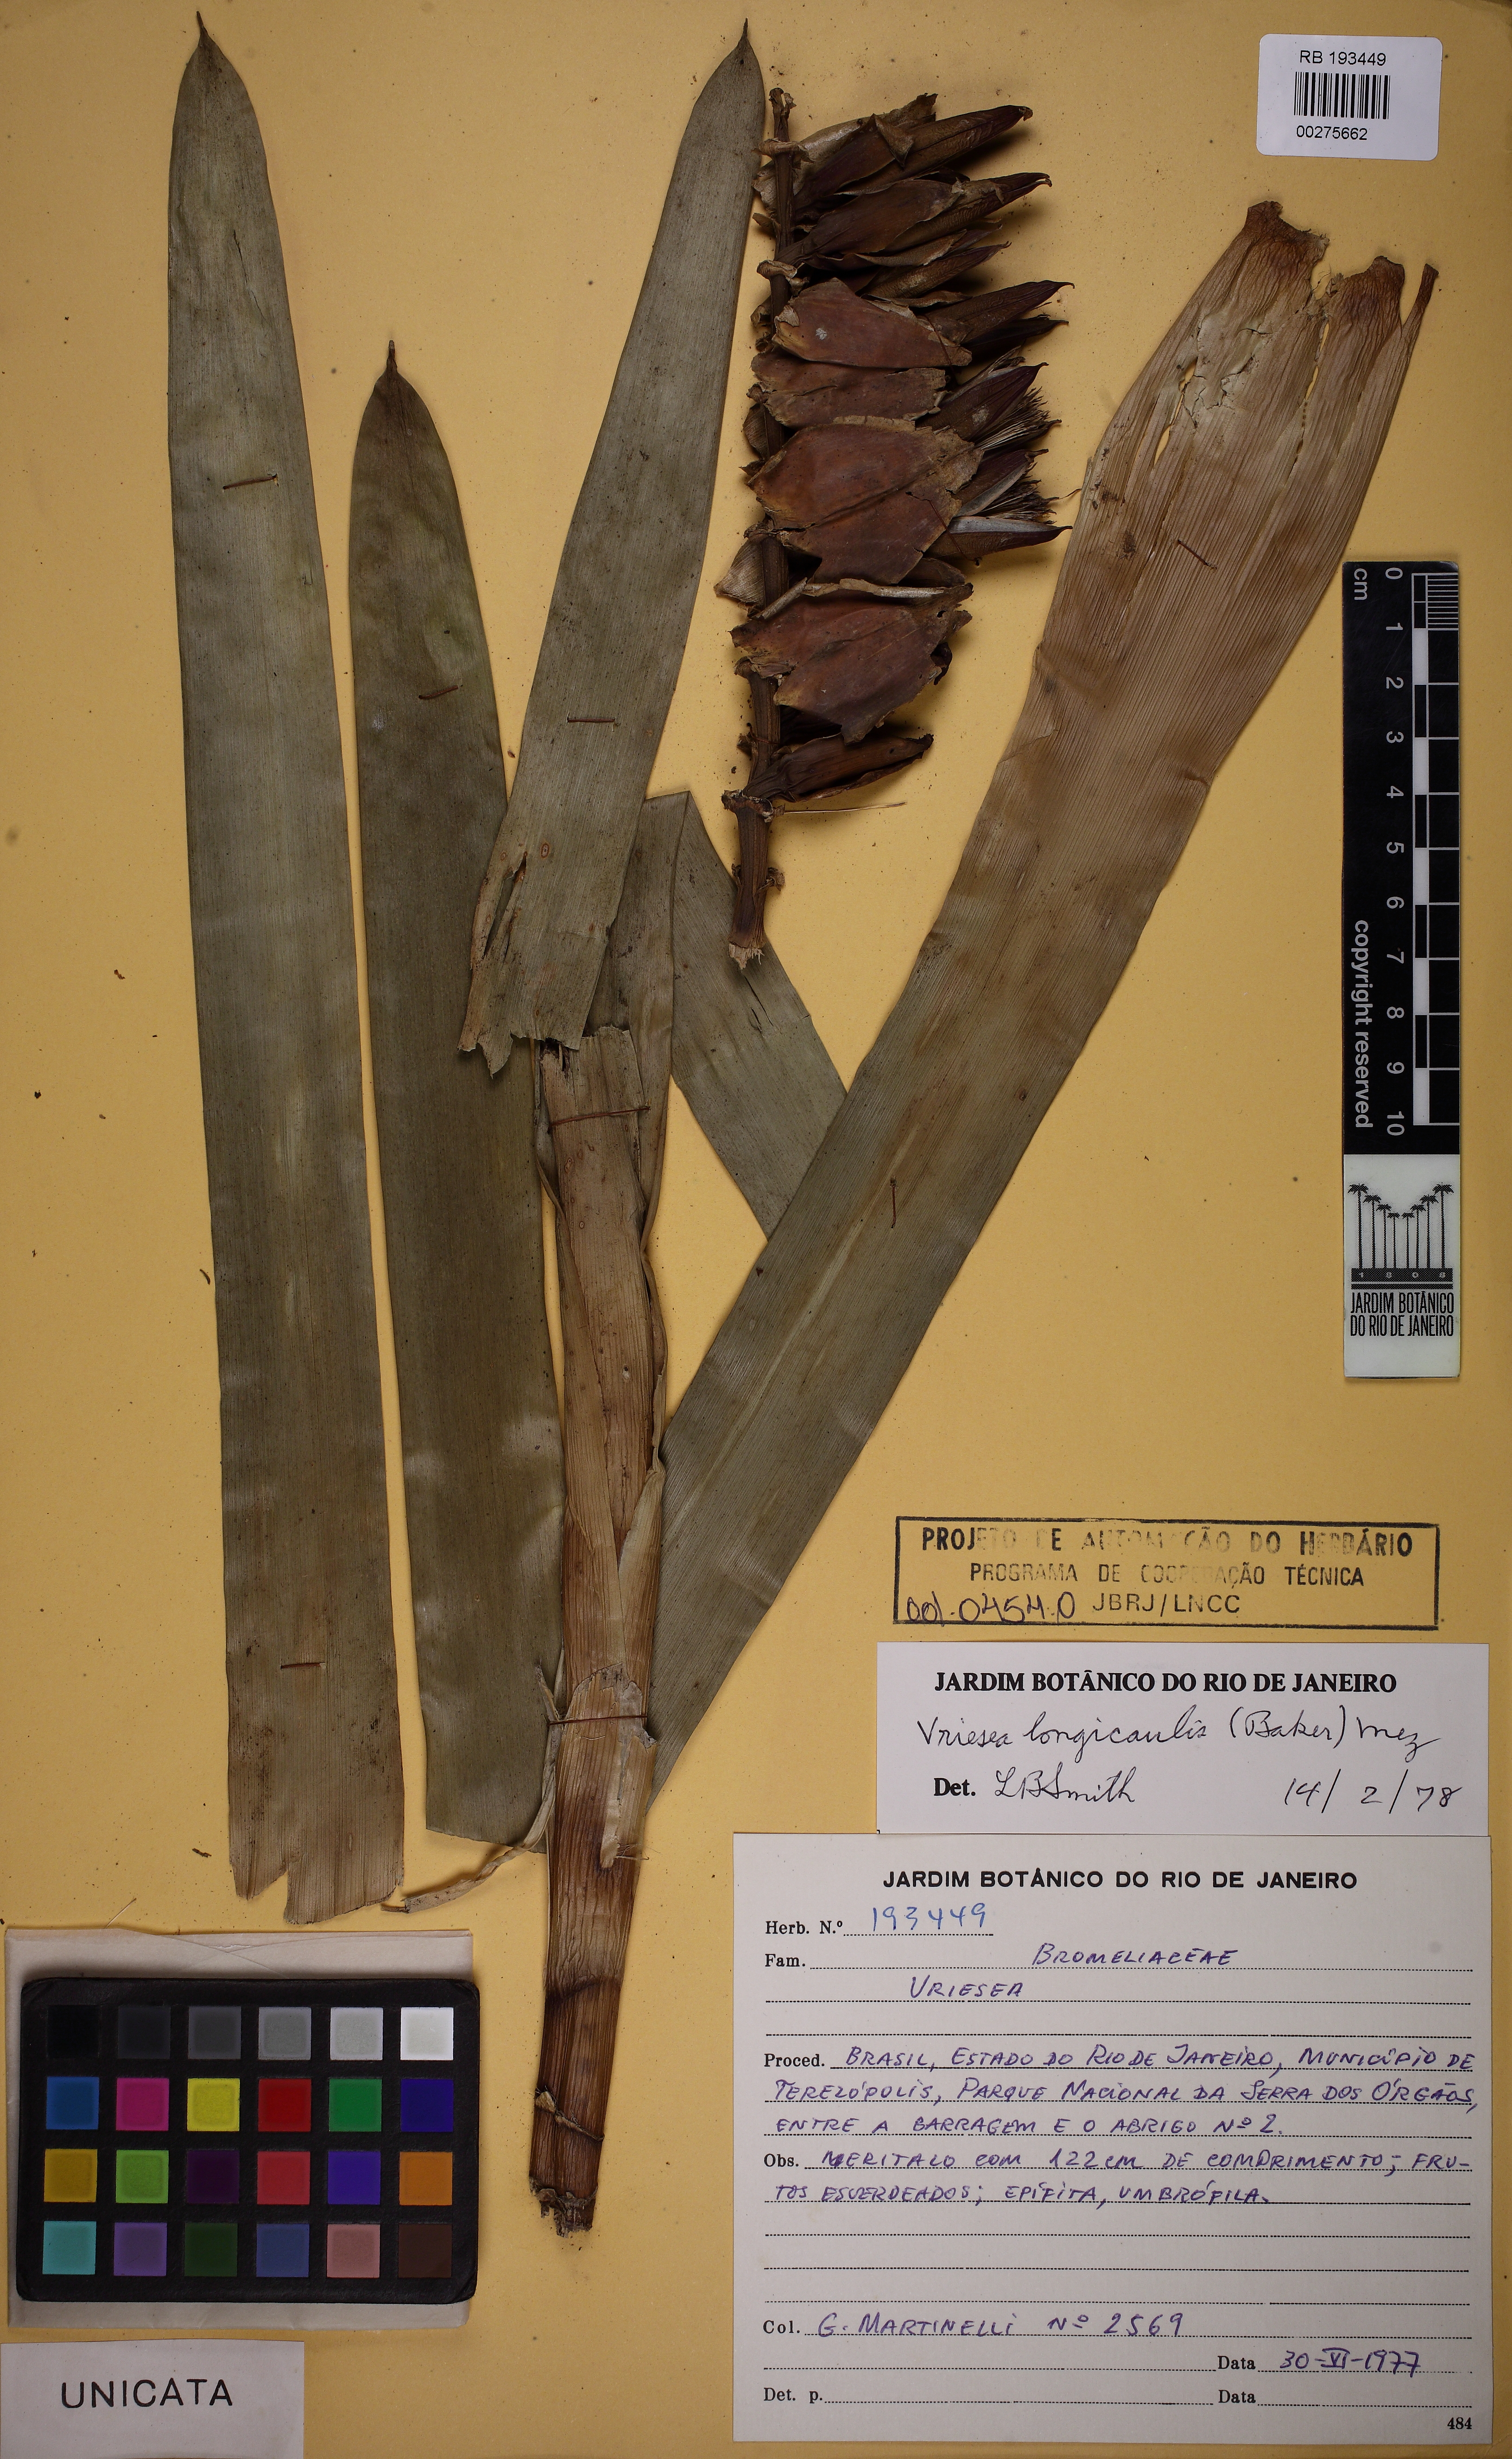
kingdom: Plantae
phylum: Tracheophyta
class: Liliopsida
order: Poales
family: Bromeliaceae
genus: Vriesea
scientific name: Vriesea longicaulis
